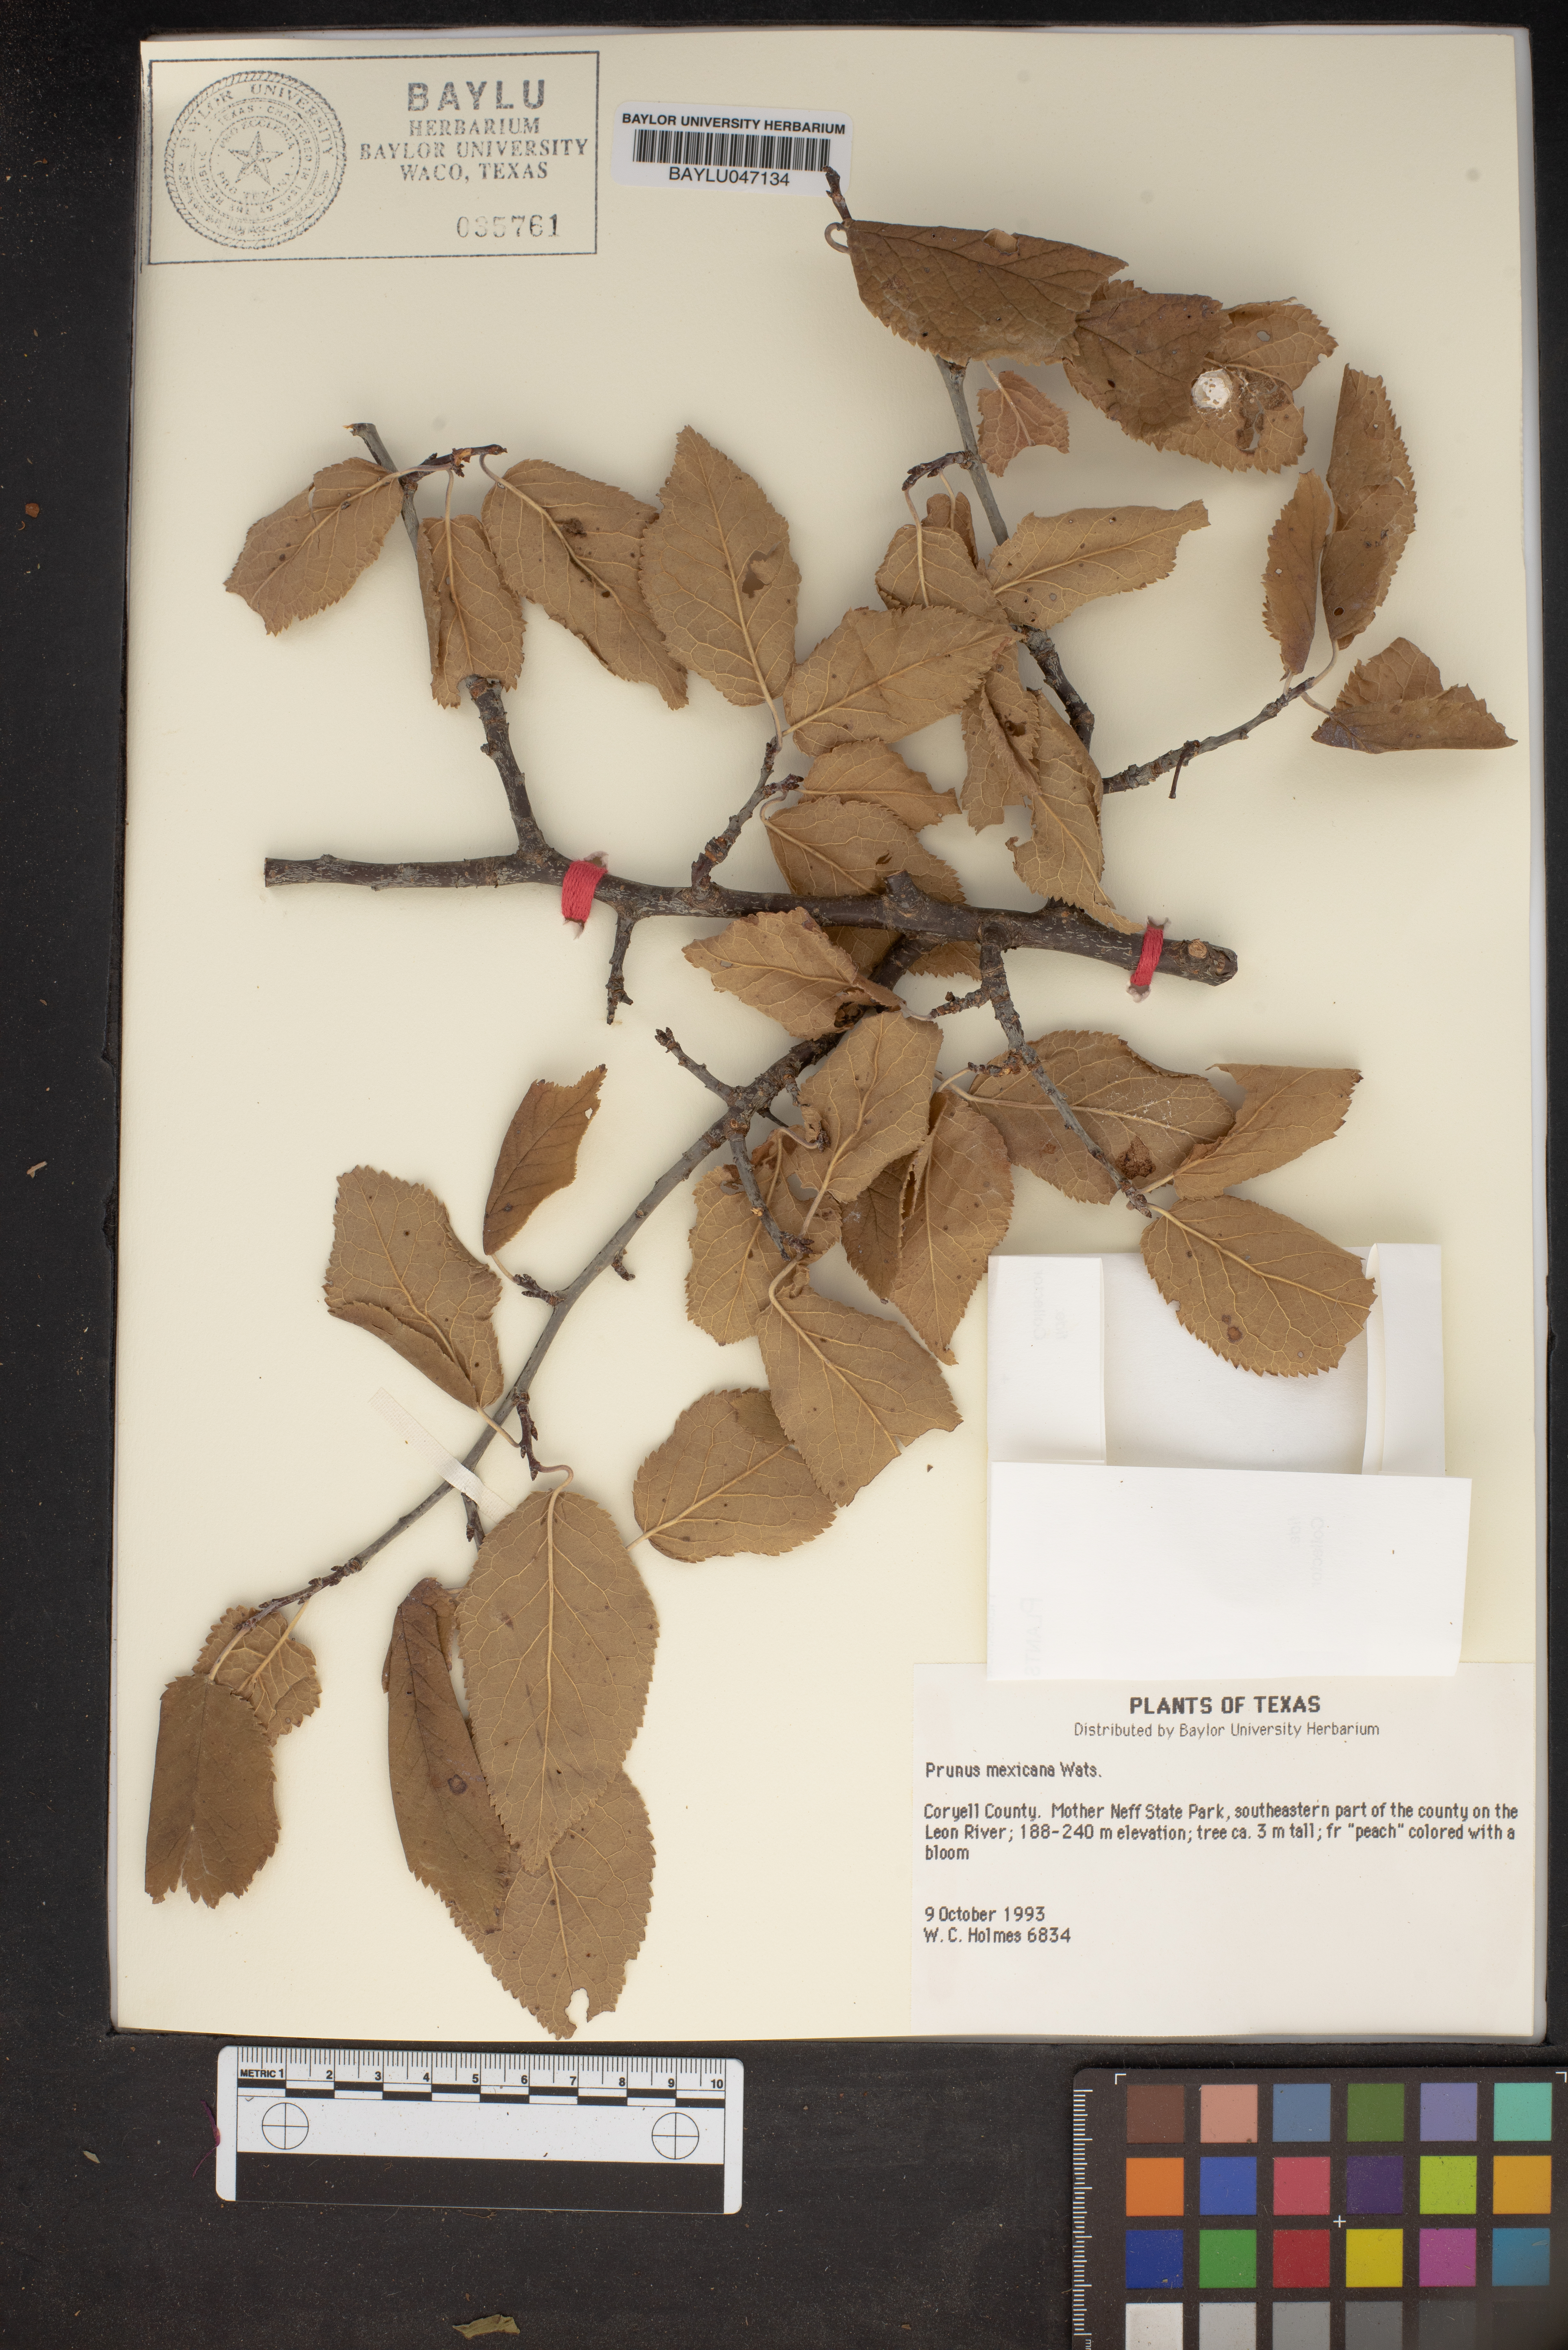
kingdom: Plantae
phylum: Tracheophyta
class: Magnoliopsida
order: Rosales
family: Rosaceae
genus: Prunus
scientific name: Prunus mexicana
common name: Mexican plum
